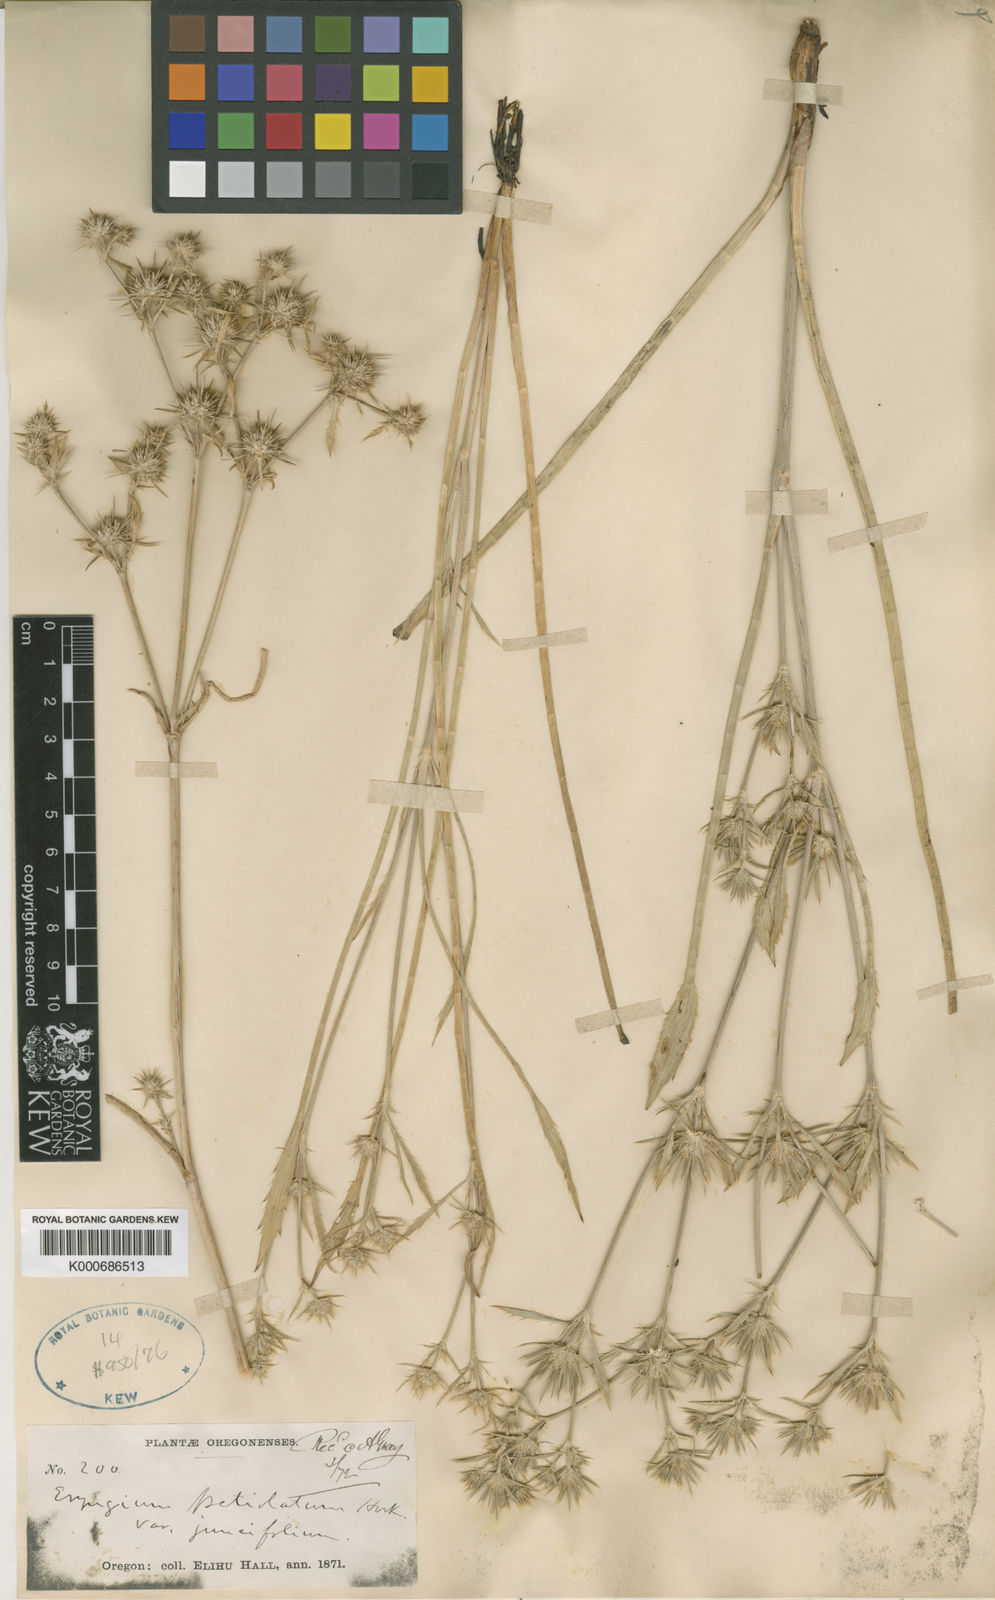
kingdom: Plantae
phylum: Tracheophyta
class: Magnoliopsida
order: Apiales
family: Apiaceae
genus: Eryngium
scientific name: Eryngium petiolatum
